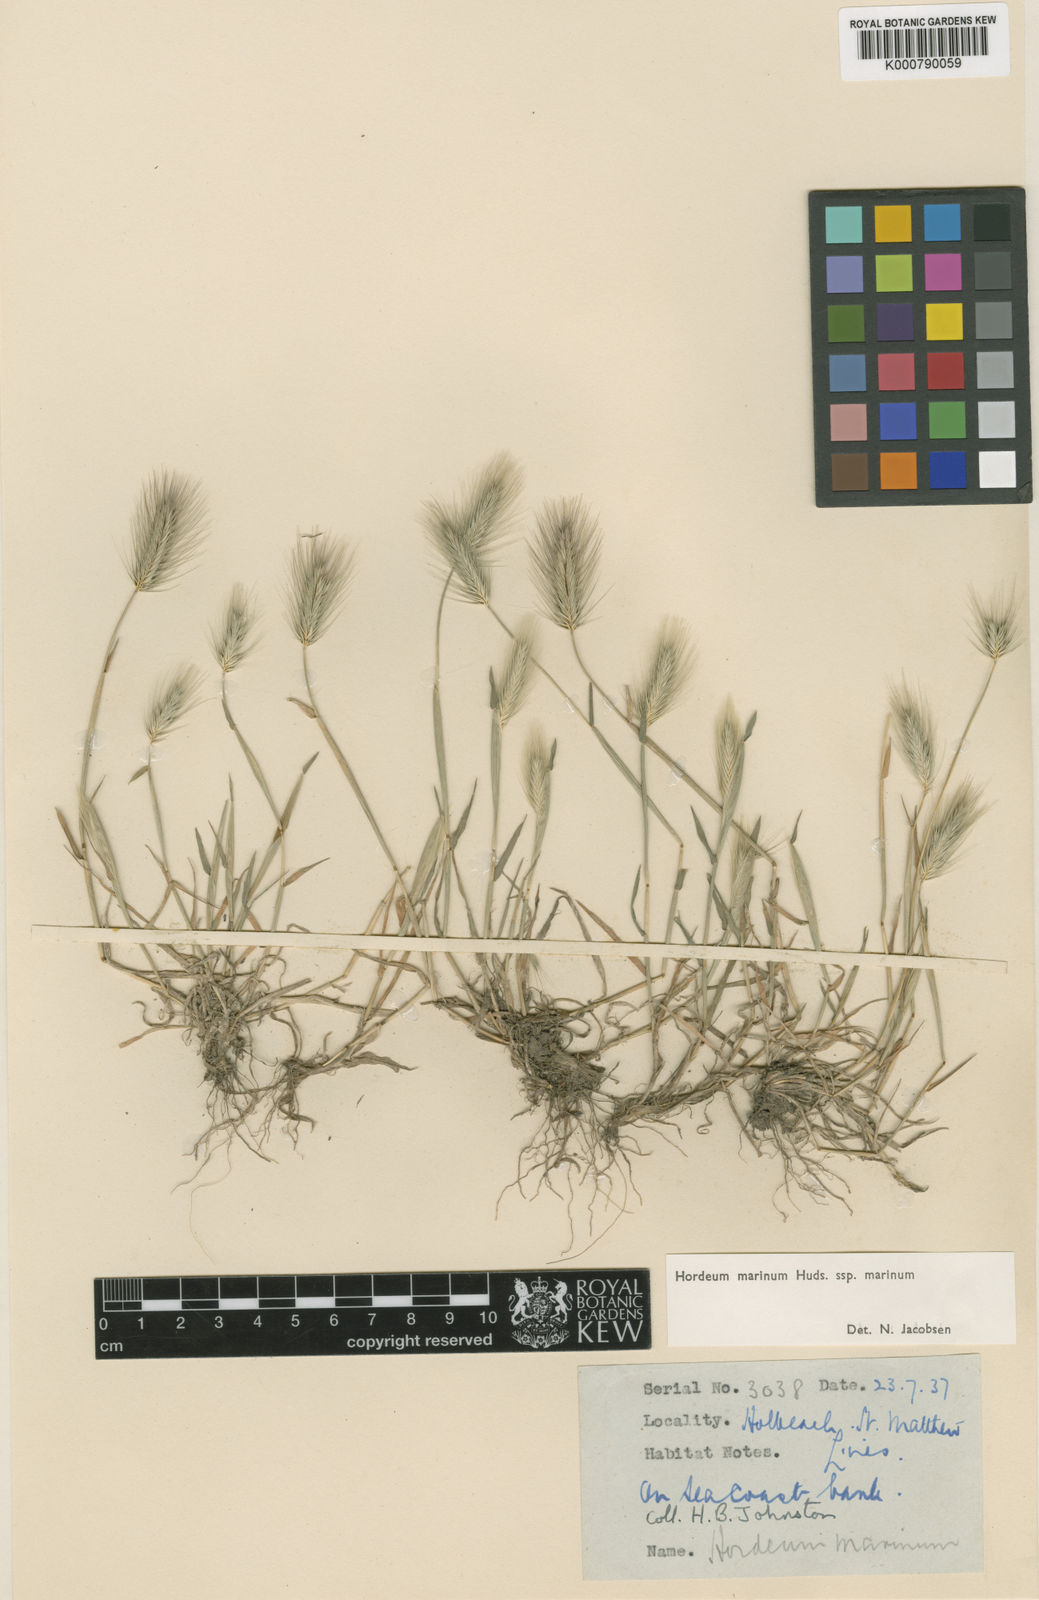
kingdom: Plantae
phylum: Tracheophyta
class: Liliopsida
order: Poales
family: Poaceae
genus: Hordeum
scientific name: Hordeum marinum
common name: Sea barley
